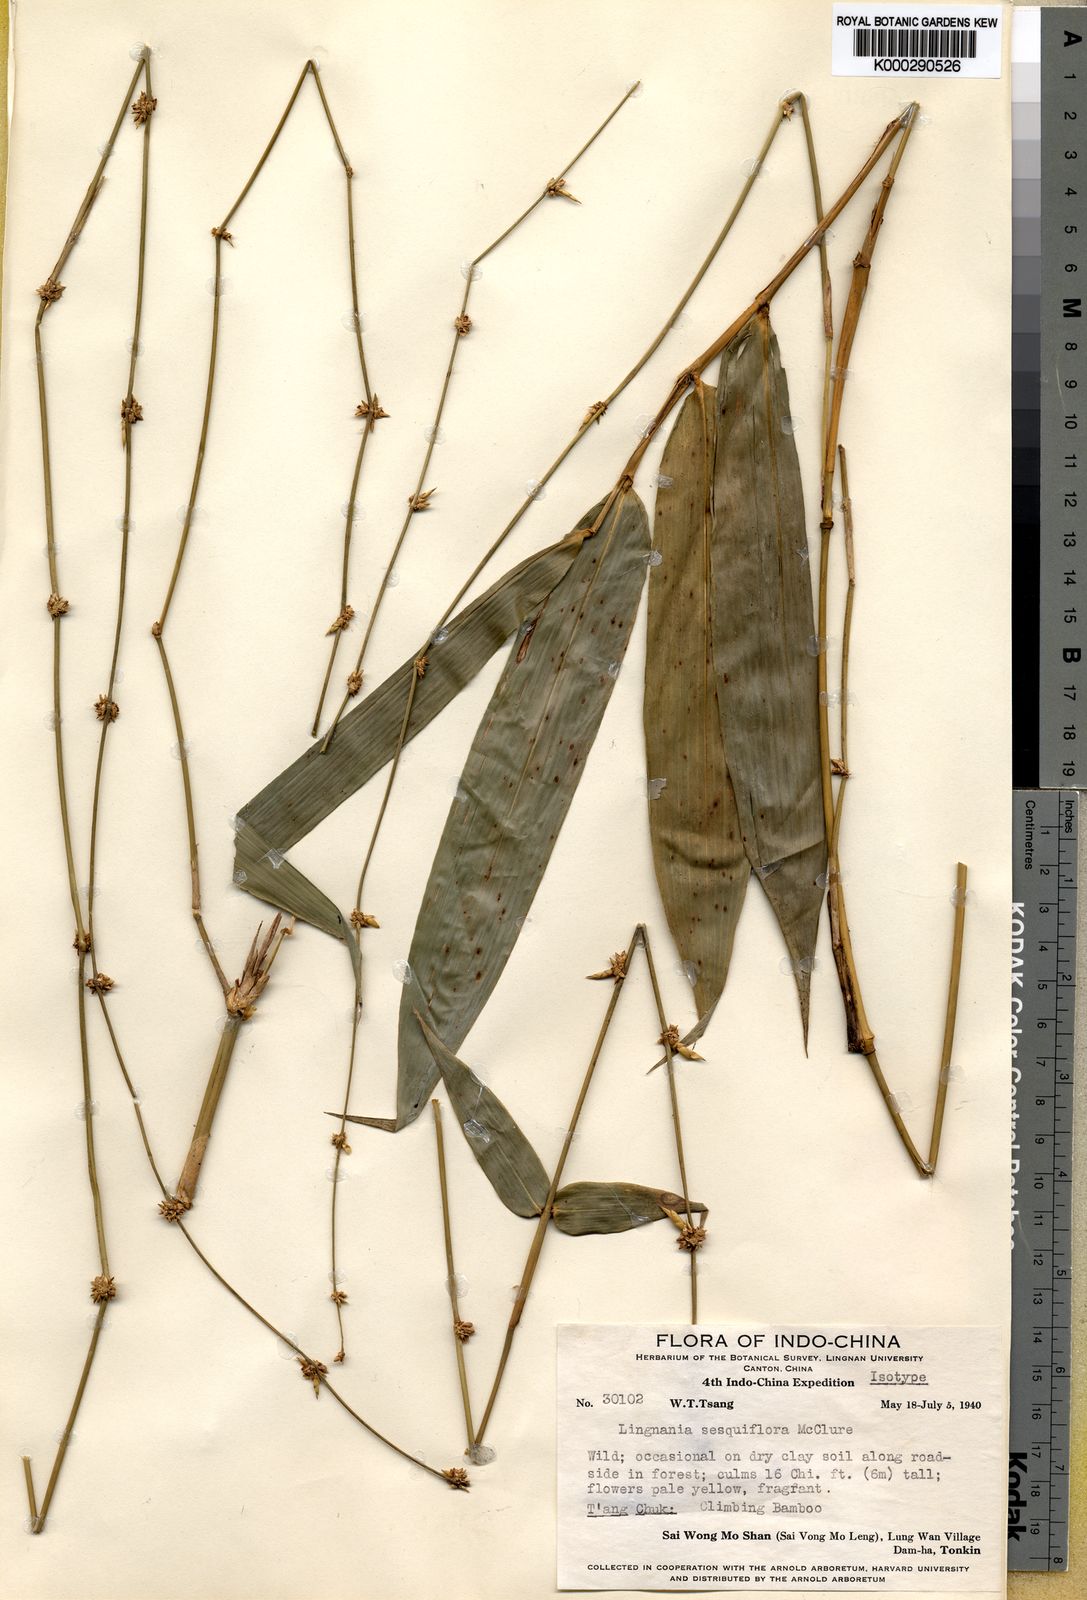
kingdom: Plantae
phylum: Tracheophyta
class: Liliopsida
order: Poales
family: Poaceae
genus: Bambusa
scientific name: Bambusa sesquiflora
